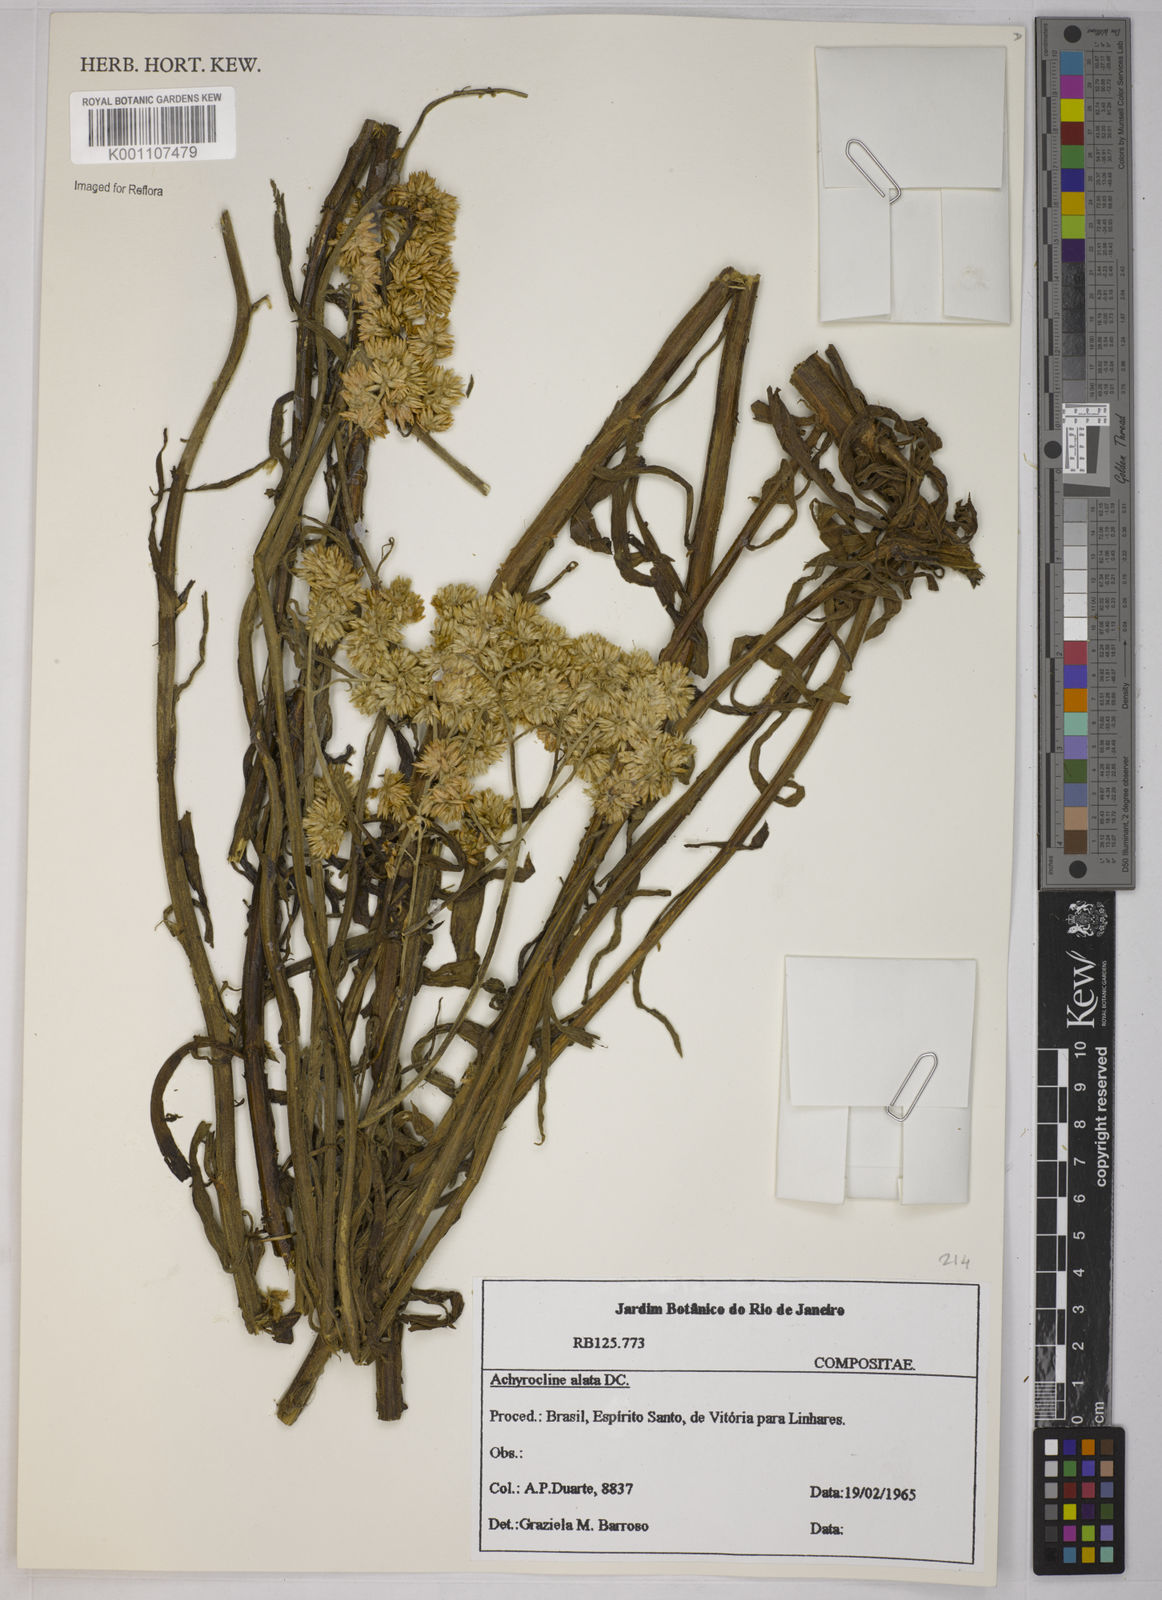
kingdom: Plantae
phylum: Tracheophyta
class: Magnoliopsida
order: Asterales
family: Asteraceae
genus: Achyrocline
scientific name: Achyrocline alata
